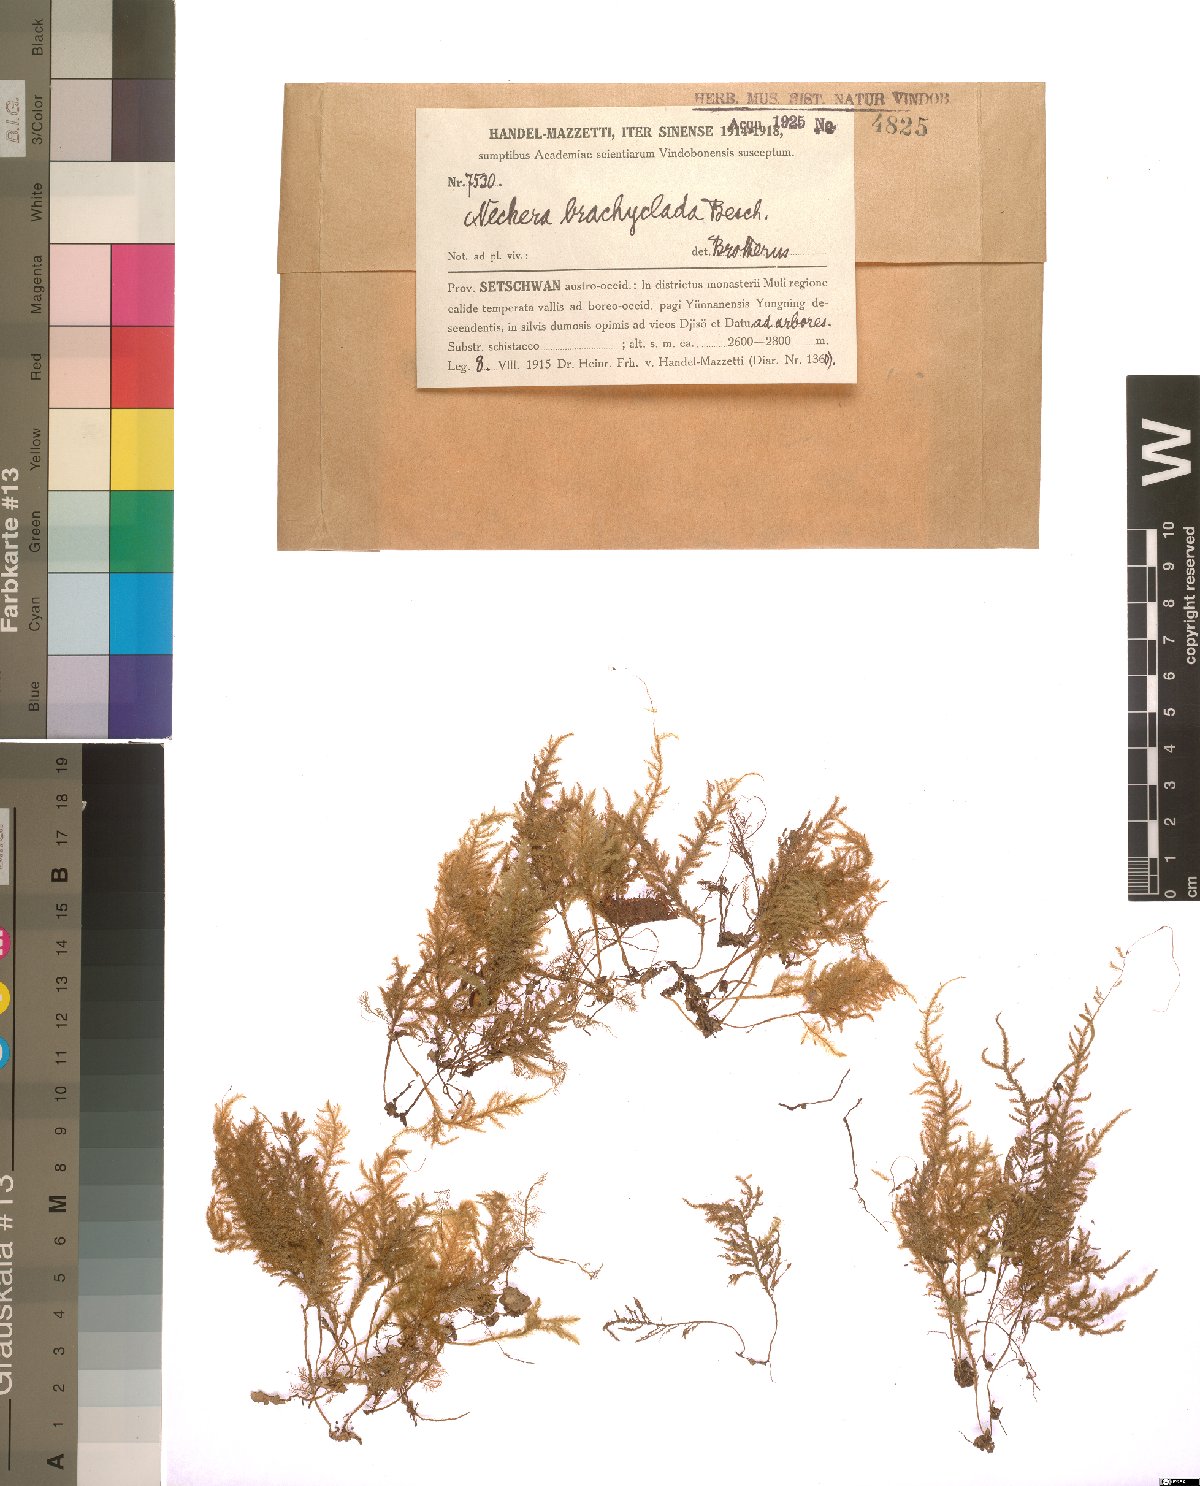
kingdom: Plantae
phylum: Bryophyta
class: Bryopsida
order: Hypnales
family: Neckeraceae
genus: Taiwanobryum
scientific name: Taiwanobryum crenulatum
